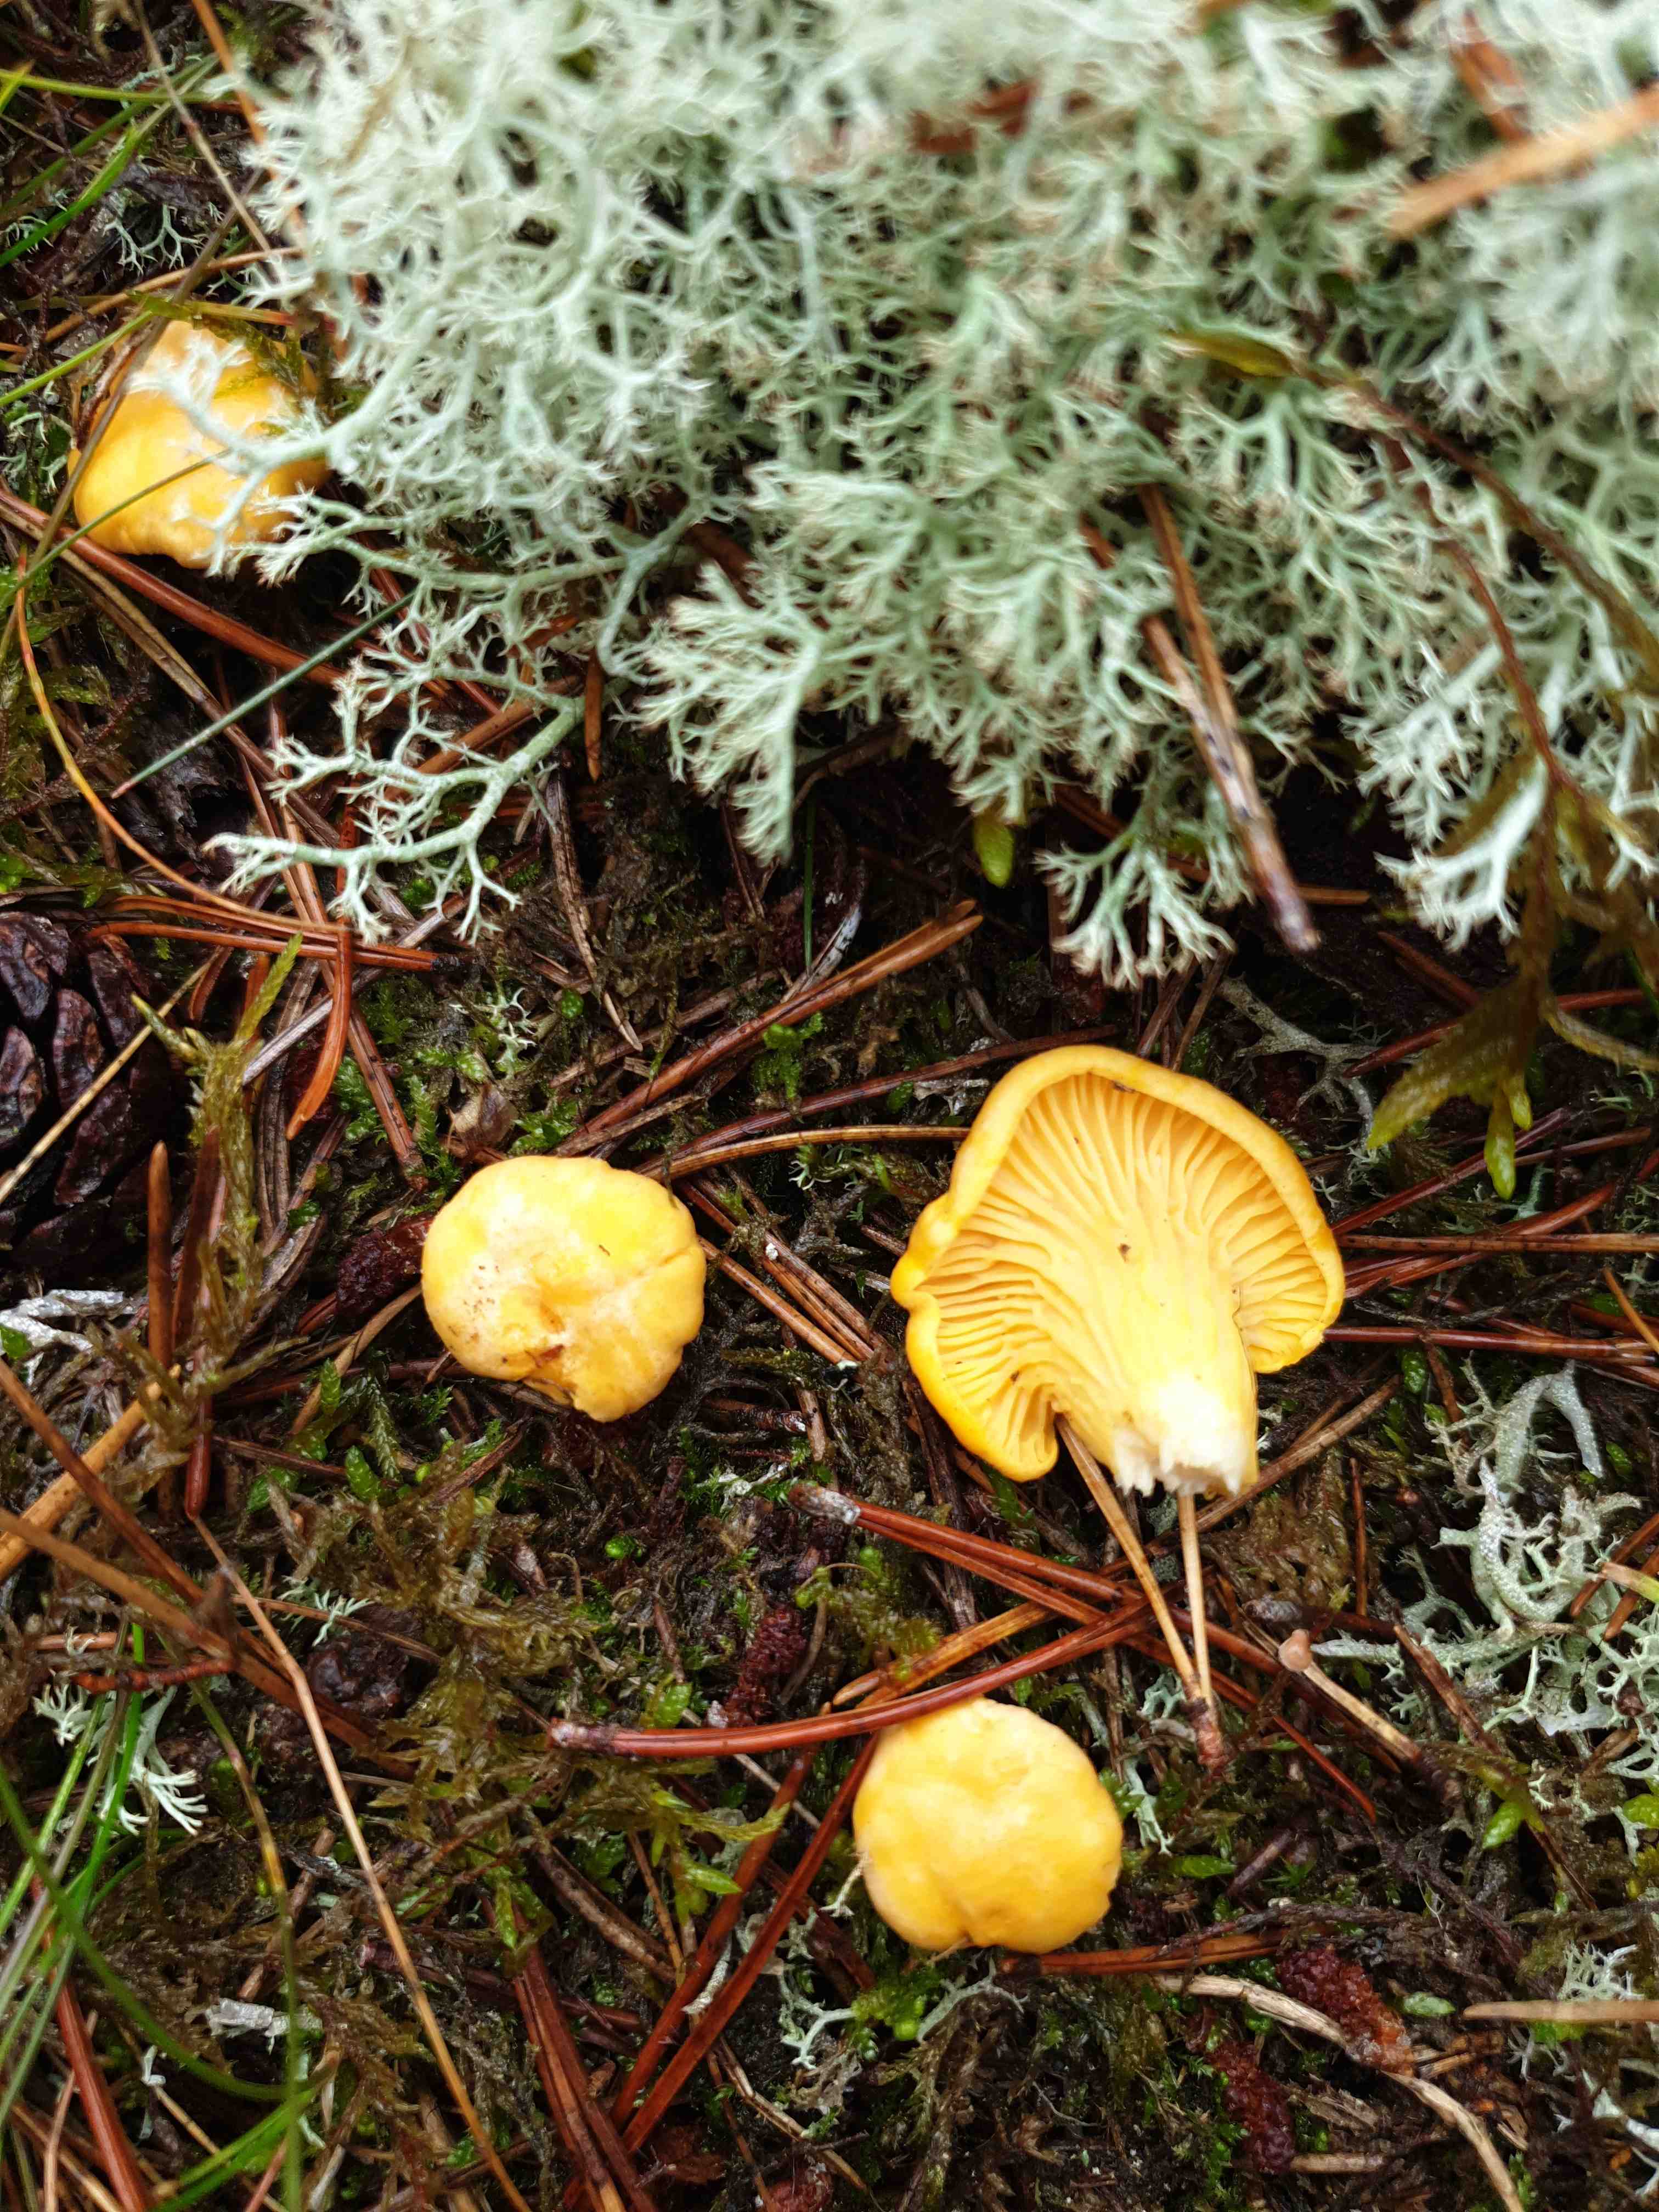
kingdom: Fungi
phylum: Basidiomycota
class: Agaricomycetes
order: Cantharellales
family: Hydnaceae
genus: Cantharellus
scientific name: Cantharellus cibarius
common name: almindelig kantarel
